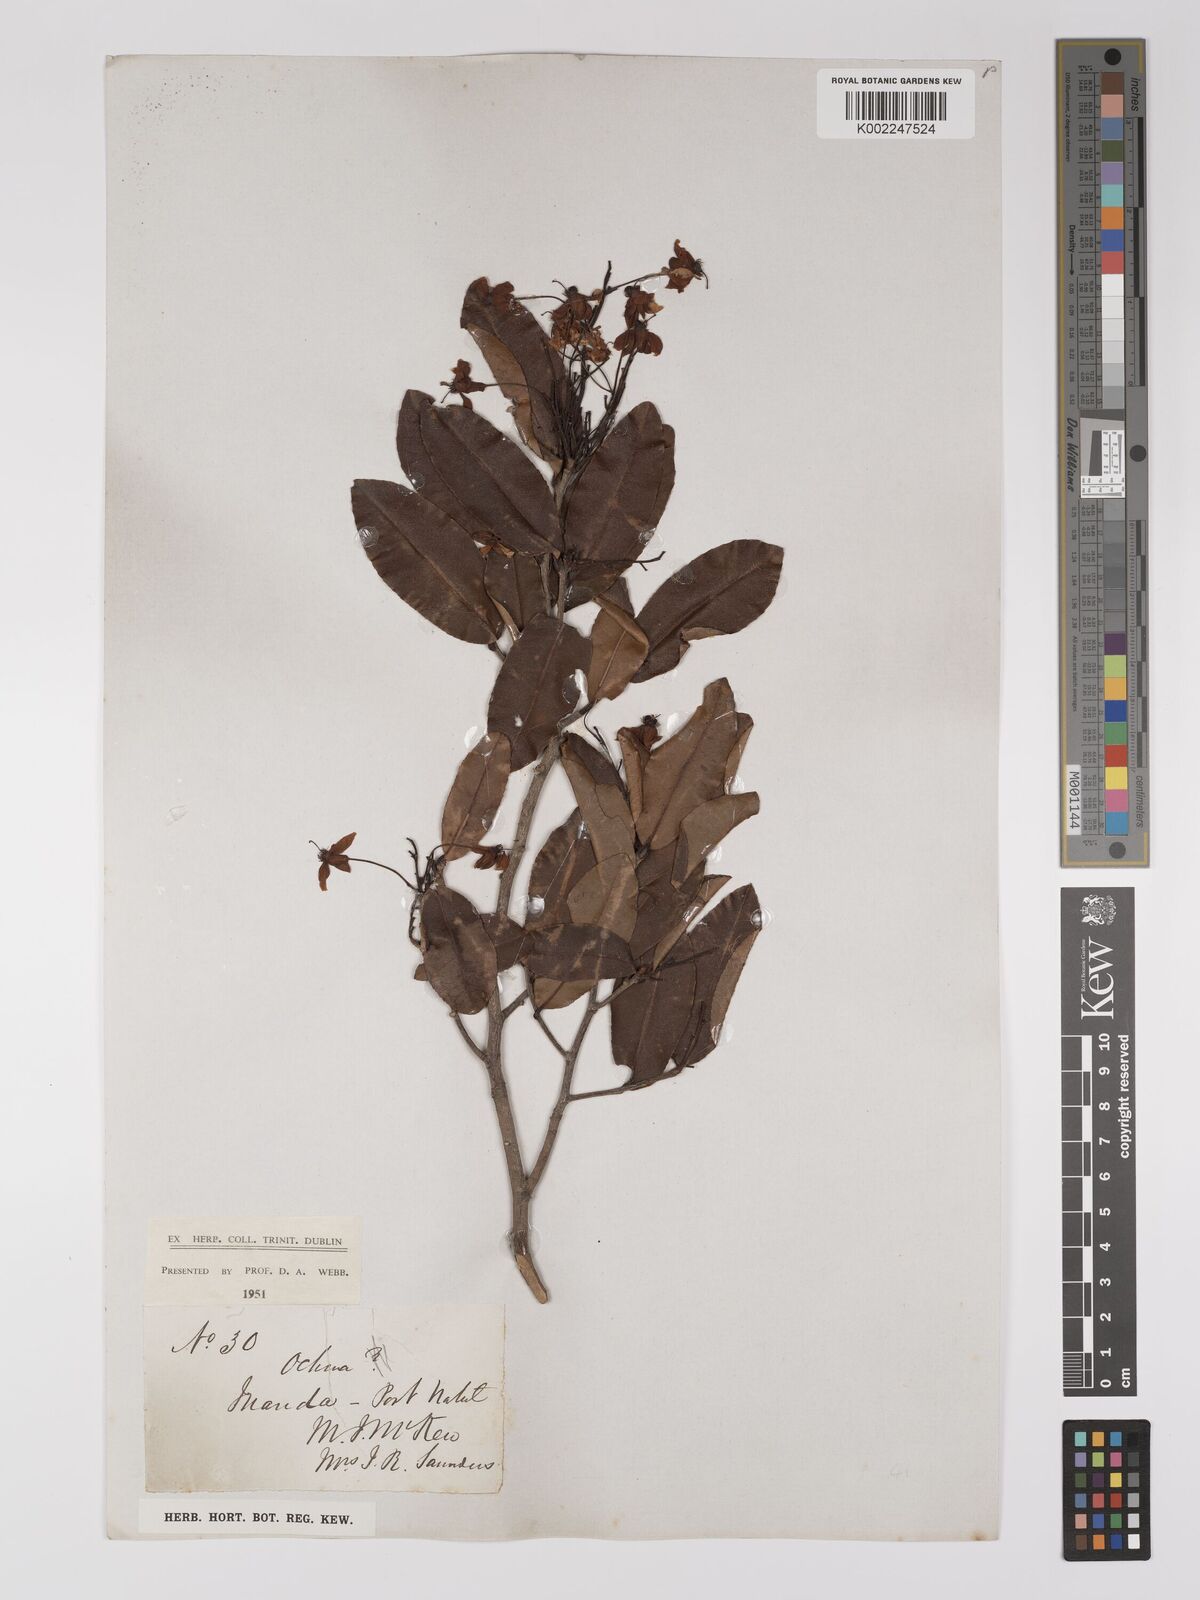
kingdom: Plantae
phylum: Tracheophyta
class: Magnoliopsida
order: Malpighiales
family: Ochnaceae
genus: Ochna
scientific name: Ochna
